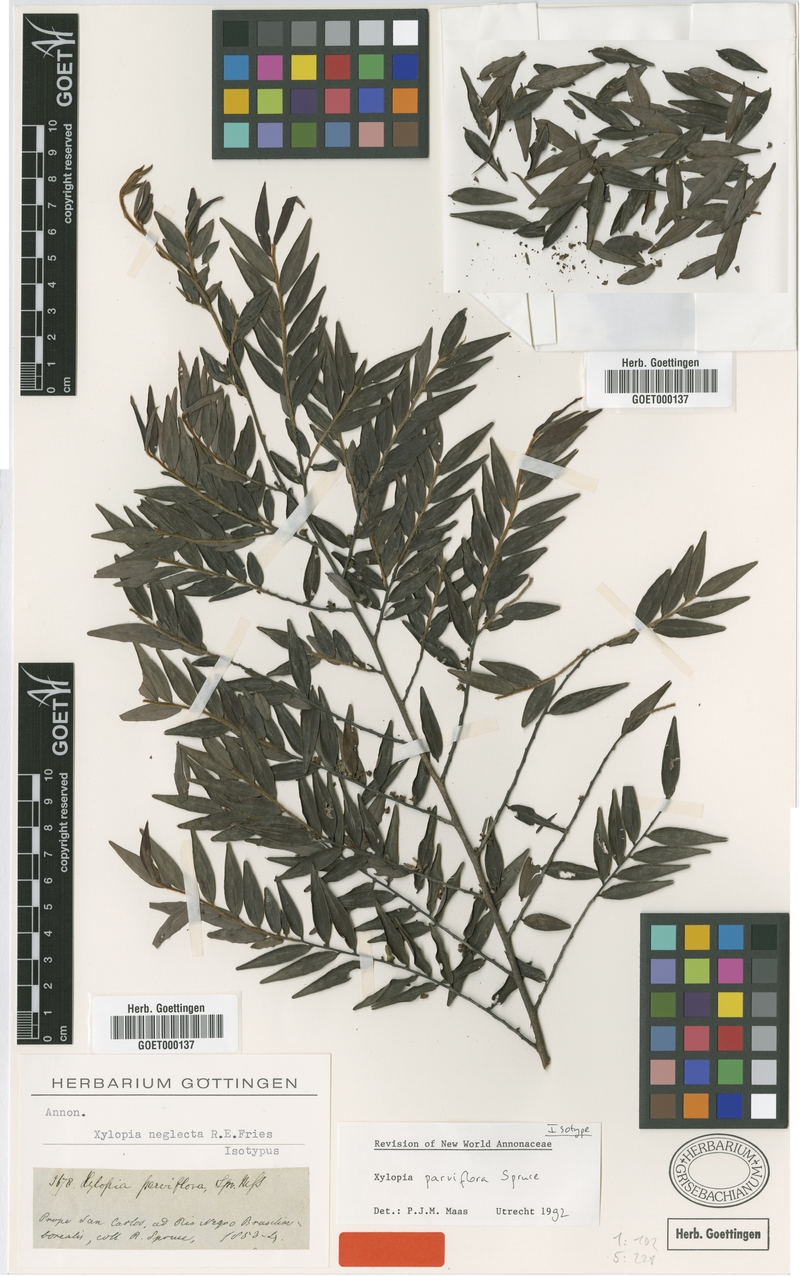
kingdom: Plantae
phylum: Tracheophyta
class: Magnoliopsida
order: Magnoliales
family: Annonaceae
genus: Xylopia
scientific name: Xylopia neglecta
